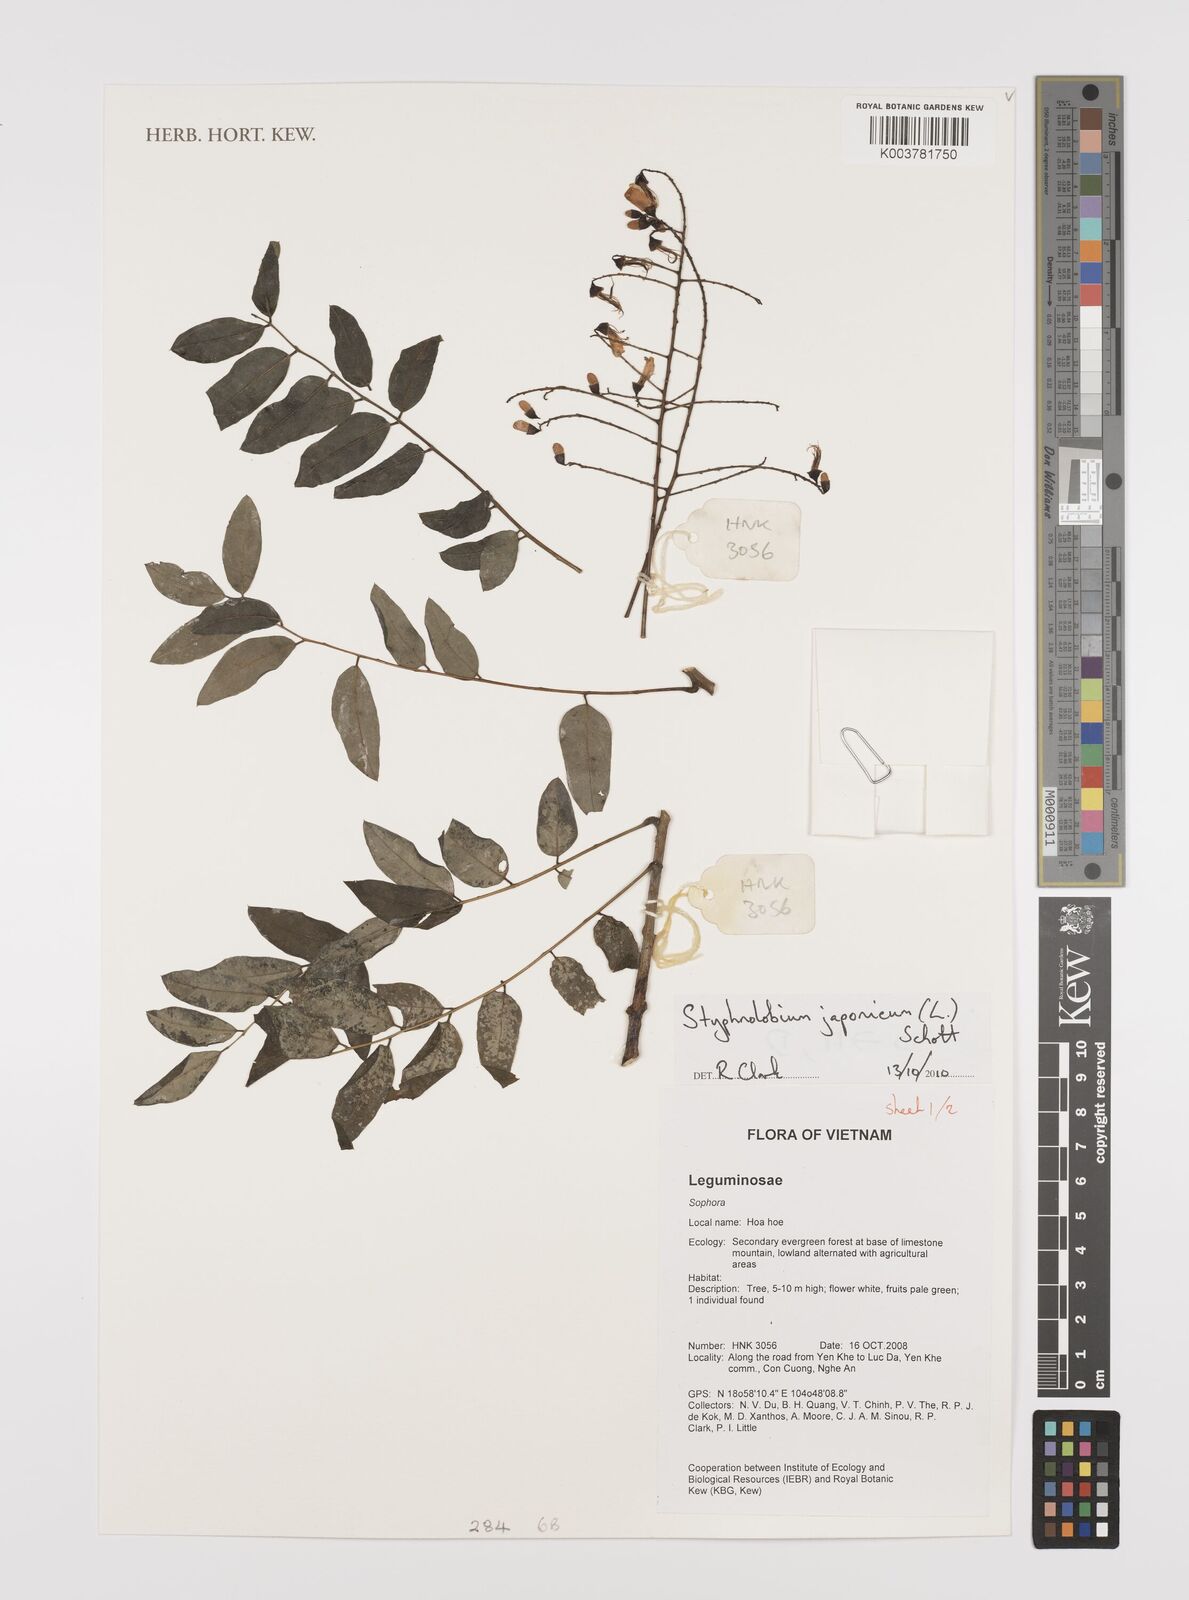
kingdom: Plantae
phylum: Tracheophyta
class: Magnoliopsida
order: Fabales
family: Fabaceae
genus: Styphnolobium
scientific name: Styphnolobium japonicum
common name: Chinese scholartree
